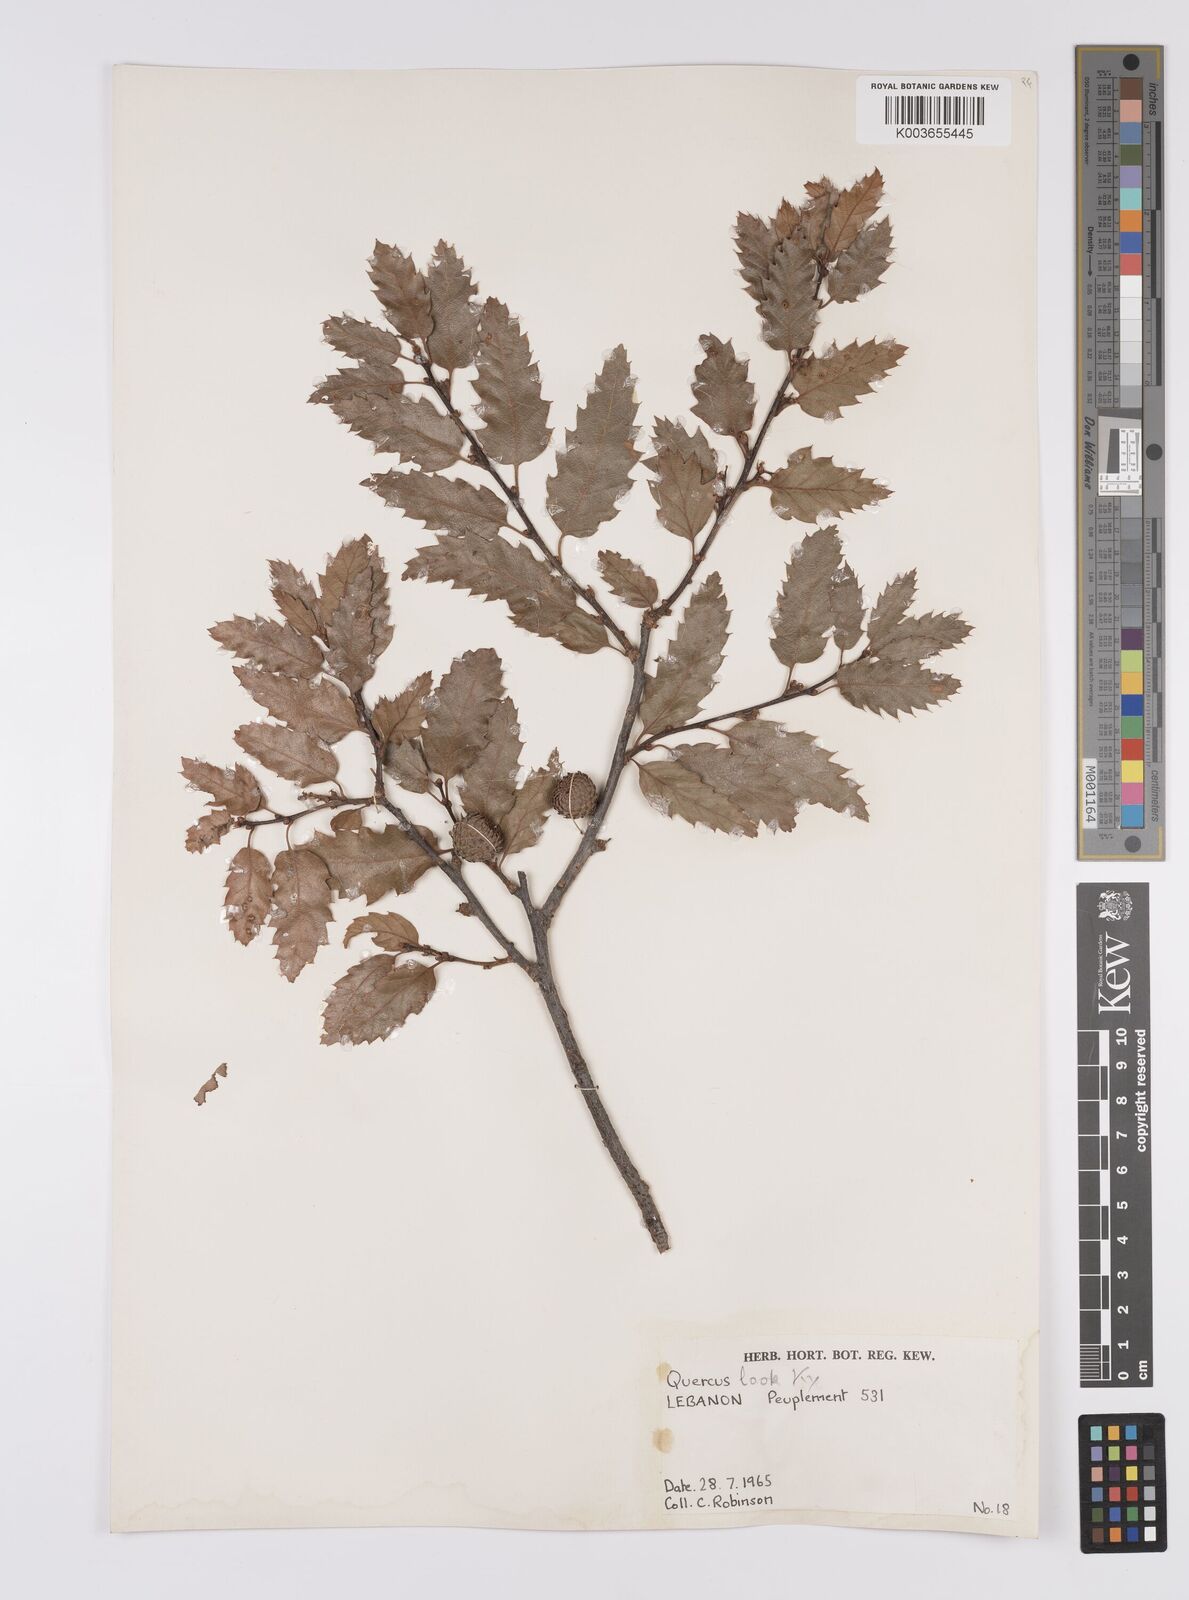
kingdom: Plantae
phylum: Tracheophyta
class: Magnoliopsida
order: Fagales
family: Fagaceae
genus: Quercus
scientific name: Quercus look
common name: Look oak
